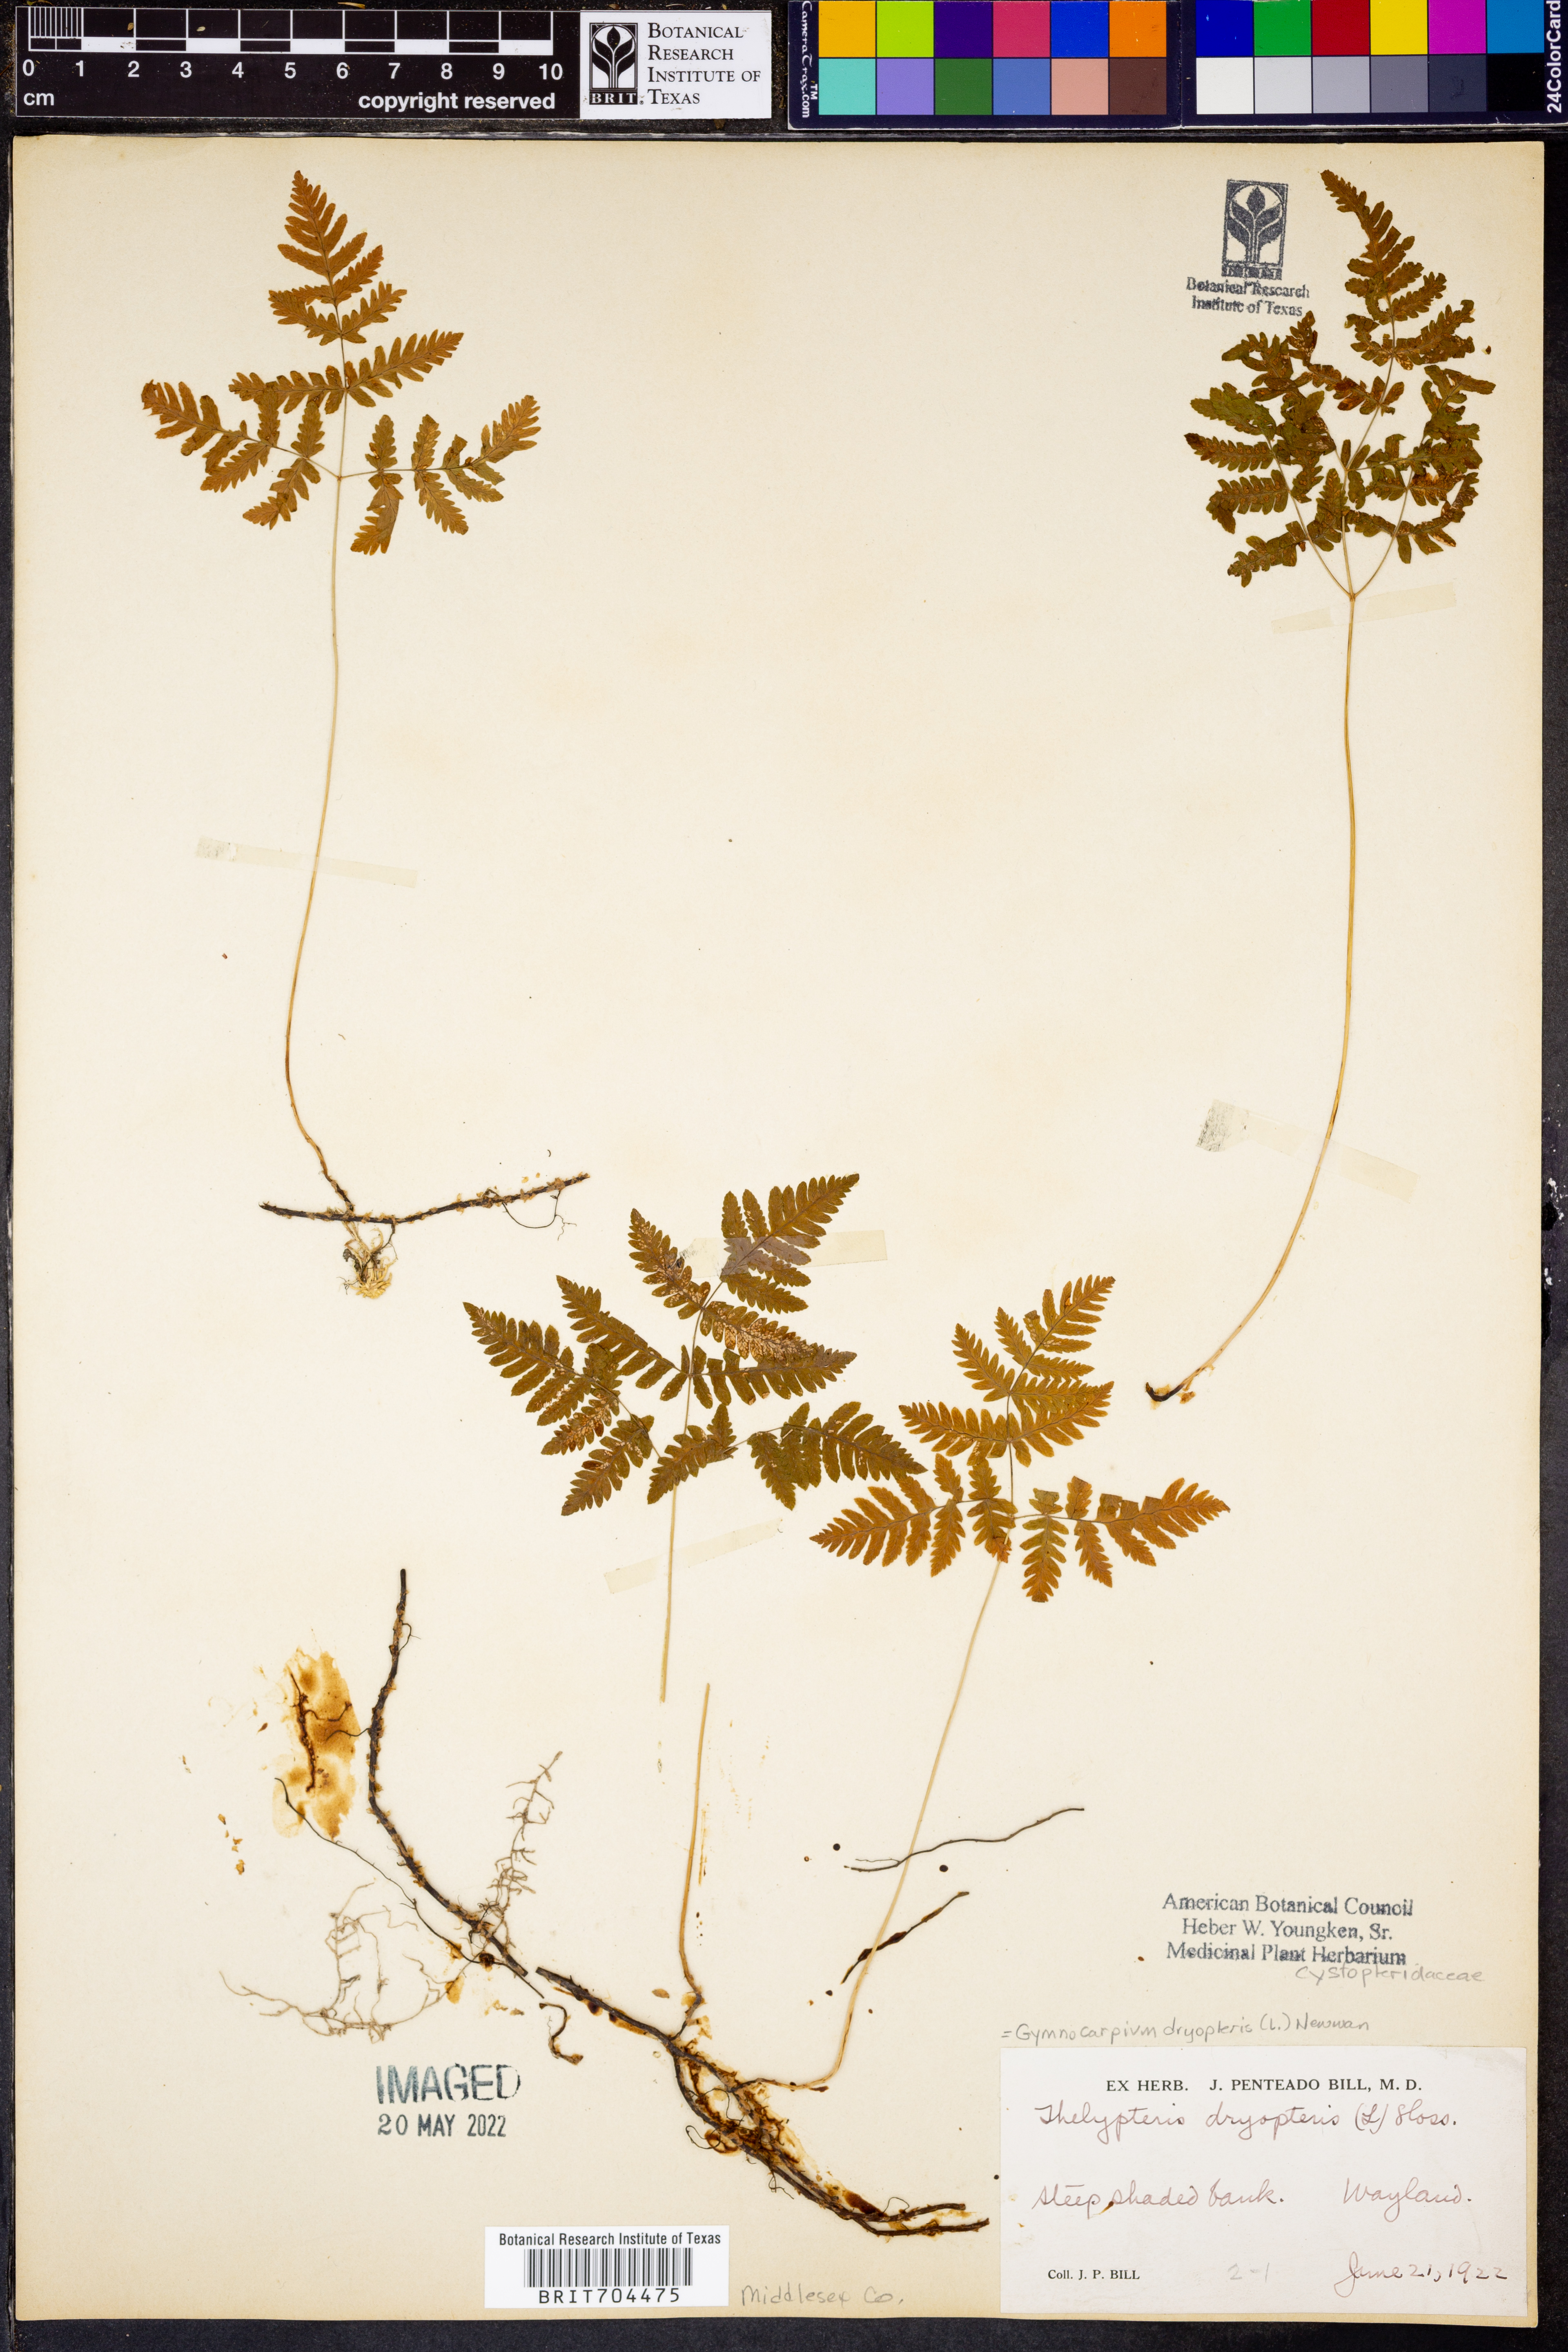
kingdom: Plantae
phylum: Tracheophyta
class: Polypodiopsida
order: Polypodiales
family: Cystopteridaceae
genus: Gymnocarpium
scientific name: Gymnocarpium dryopteris
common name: Oak fern
